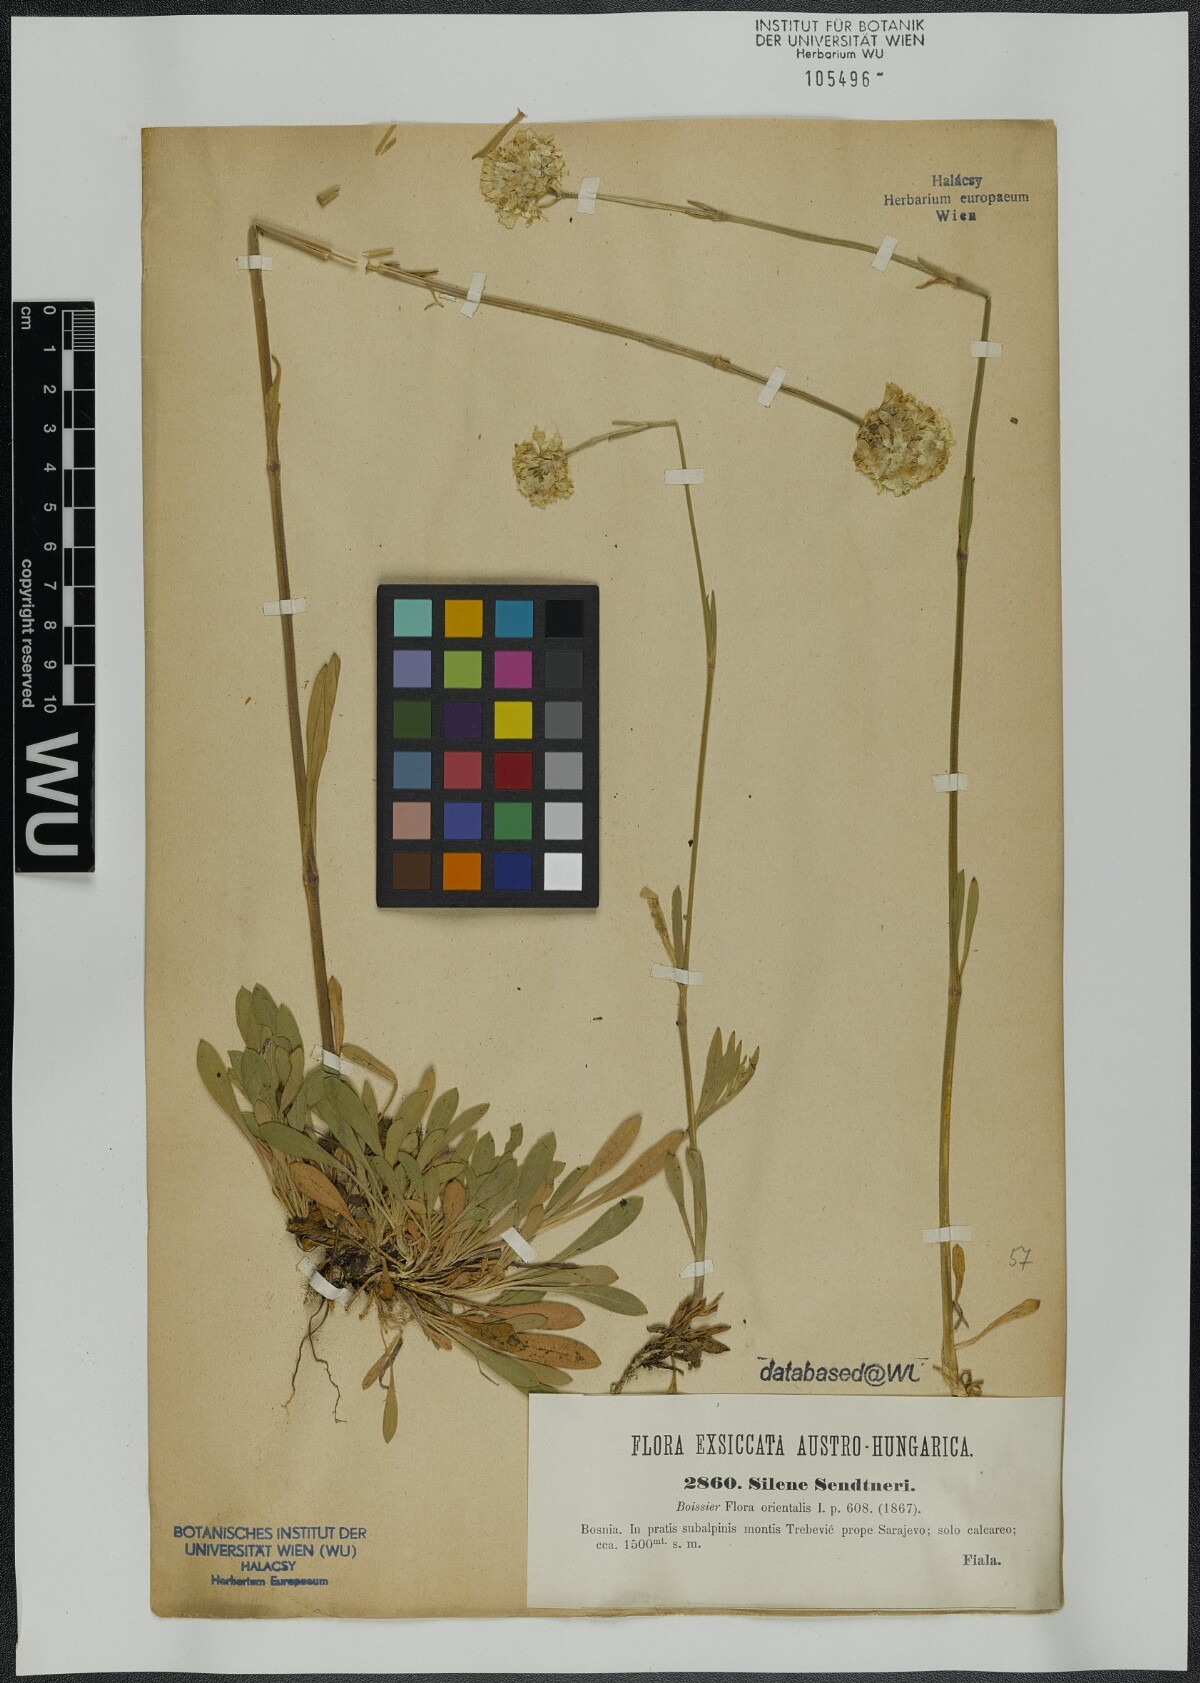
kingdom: Plantae
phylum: Tracheophyta
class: Magnoliopsida
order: Caryophyllales
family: Caryophyllaceae
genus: Silene
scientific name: Silene sendtneri
